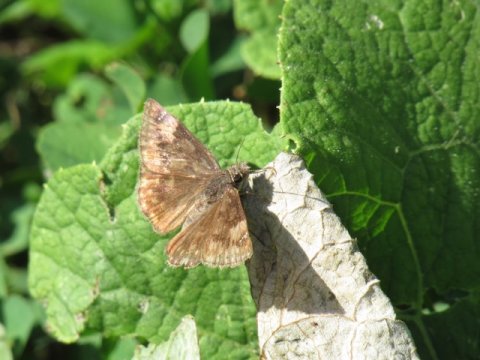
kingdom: Animalia
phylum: Arthropoda
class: Insecta
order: Lepidoptera
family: Hesperiidae
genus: Gesta
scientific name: Gesta
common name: Wild Indigo Duskywing
